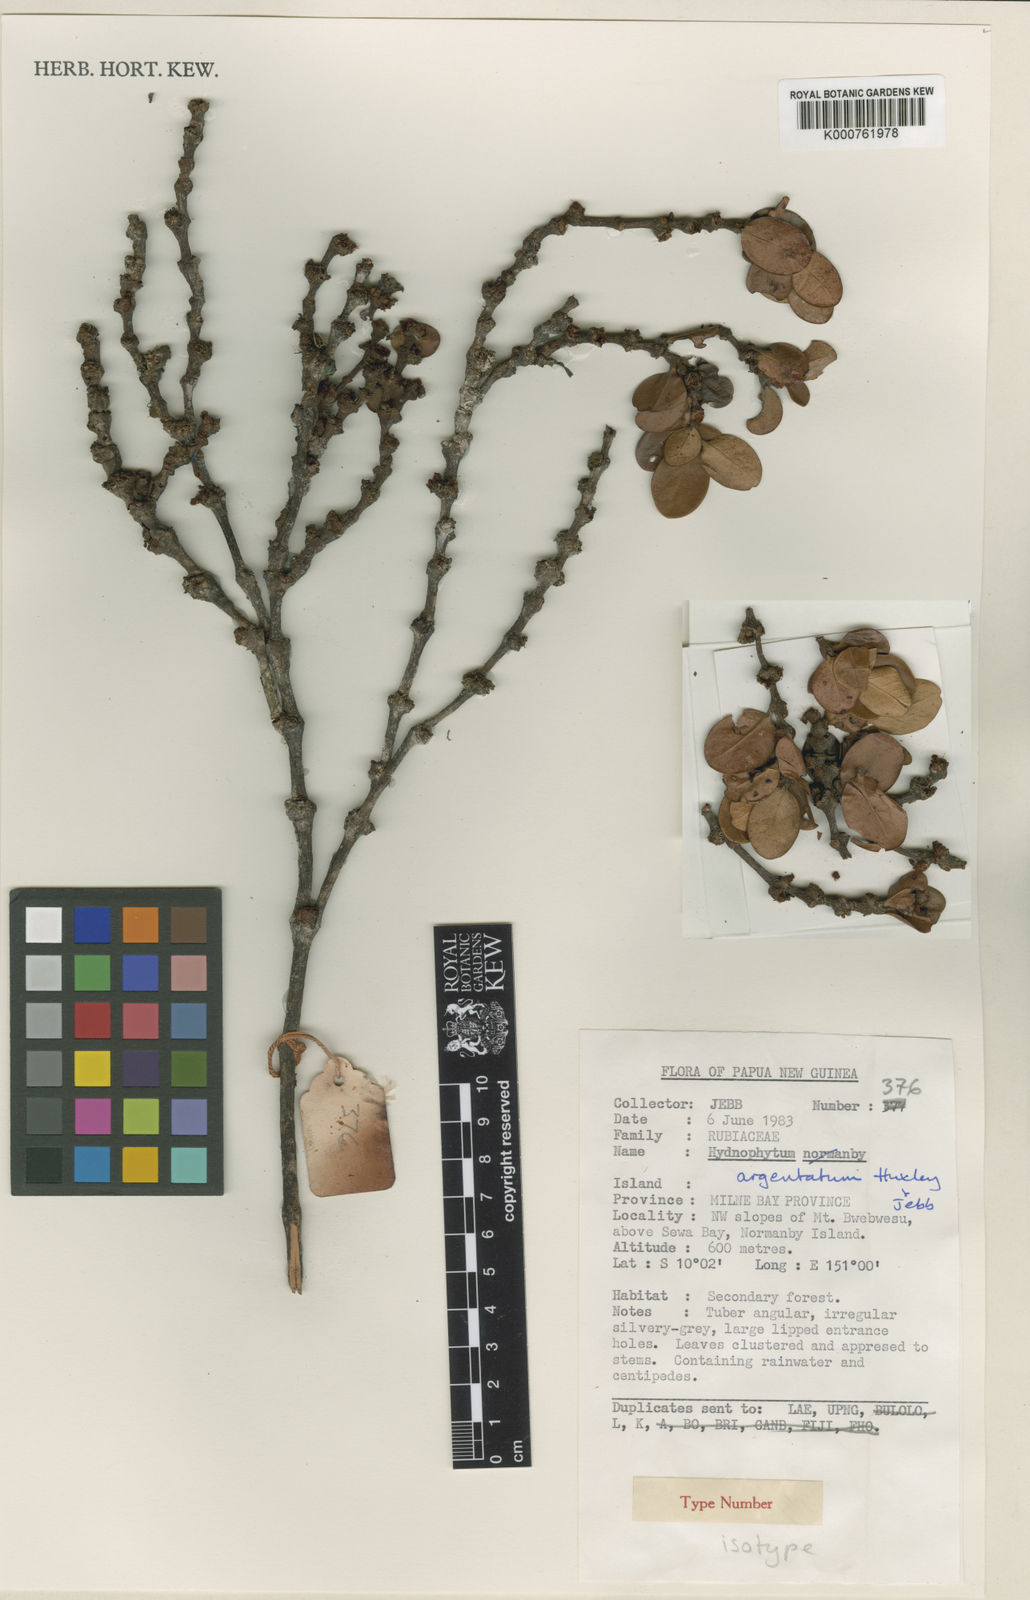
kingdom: Plantae
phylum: Tracheophyta
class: Magnoliopsida
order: Gentianales
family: Rubiaceae
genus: Hydnophytum
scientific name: Hydnophytum
